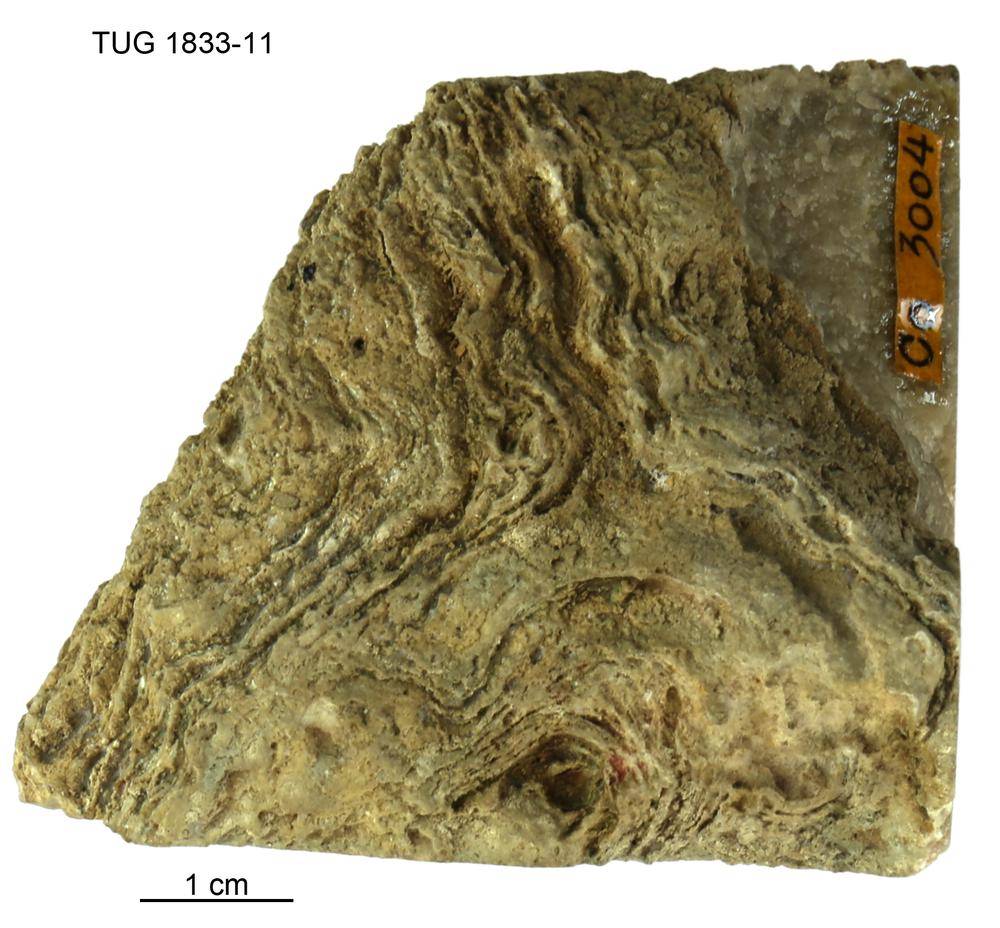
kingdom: Animalia
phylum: Porifera
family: Clathrodictyidae
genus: Stelodictyon
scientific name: Stelodictyon
